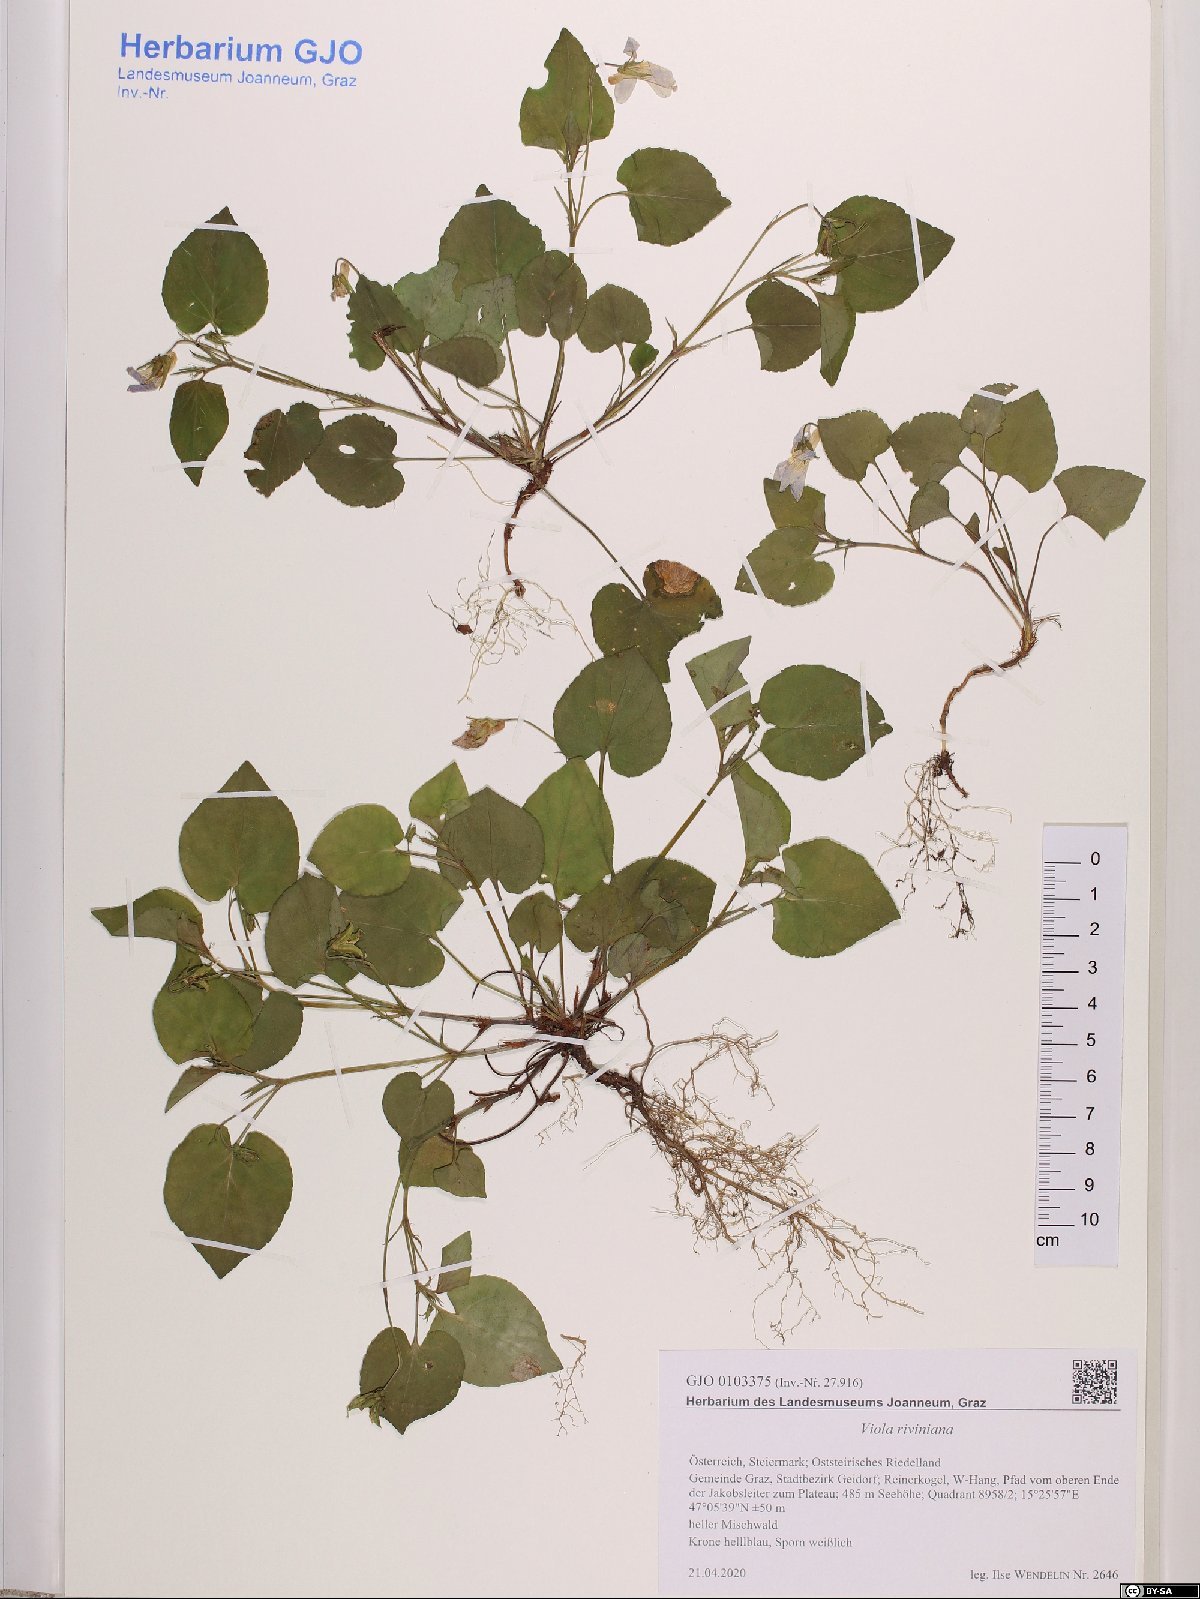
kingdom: Plantae
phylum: Tracheophyta
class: Magnoliopsida
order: Malpighiales
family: Violaceae
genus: Viola
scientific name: Viola riviniana
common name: Common dog-violet
